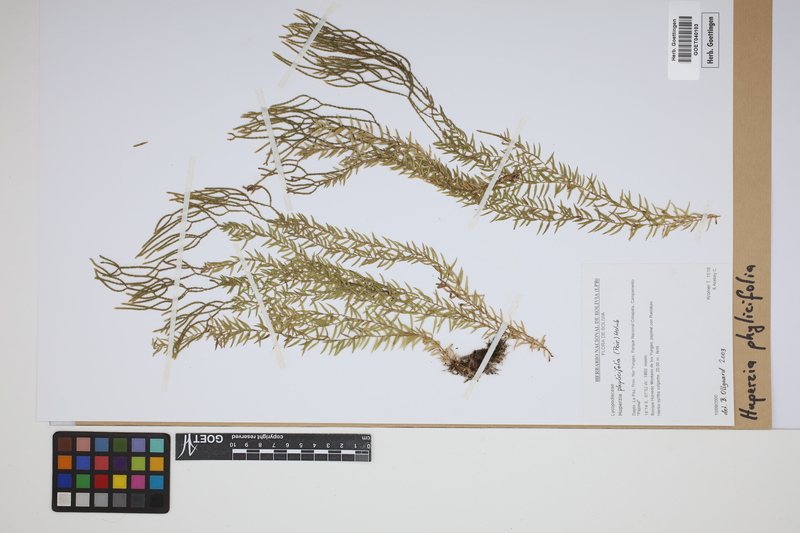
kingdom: Plantae
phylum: Tracheophyta
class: Lycopodiopsida
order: Lycopodiales
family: Lycopodiaceae
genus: Phlegmariurus
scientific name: Phlegmariurus phylicifolius
